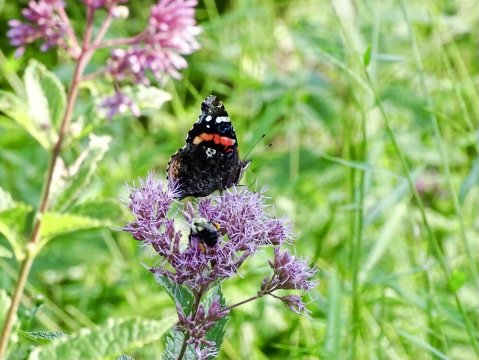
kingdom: Animalia
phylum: Arthropoda
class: Insecta
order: Lepidoptera
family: Nymphalidae
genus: Vanessa
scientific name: Vanessa atalanta
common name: Red Admiral
